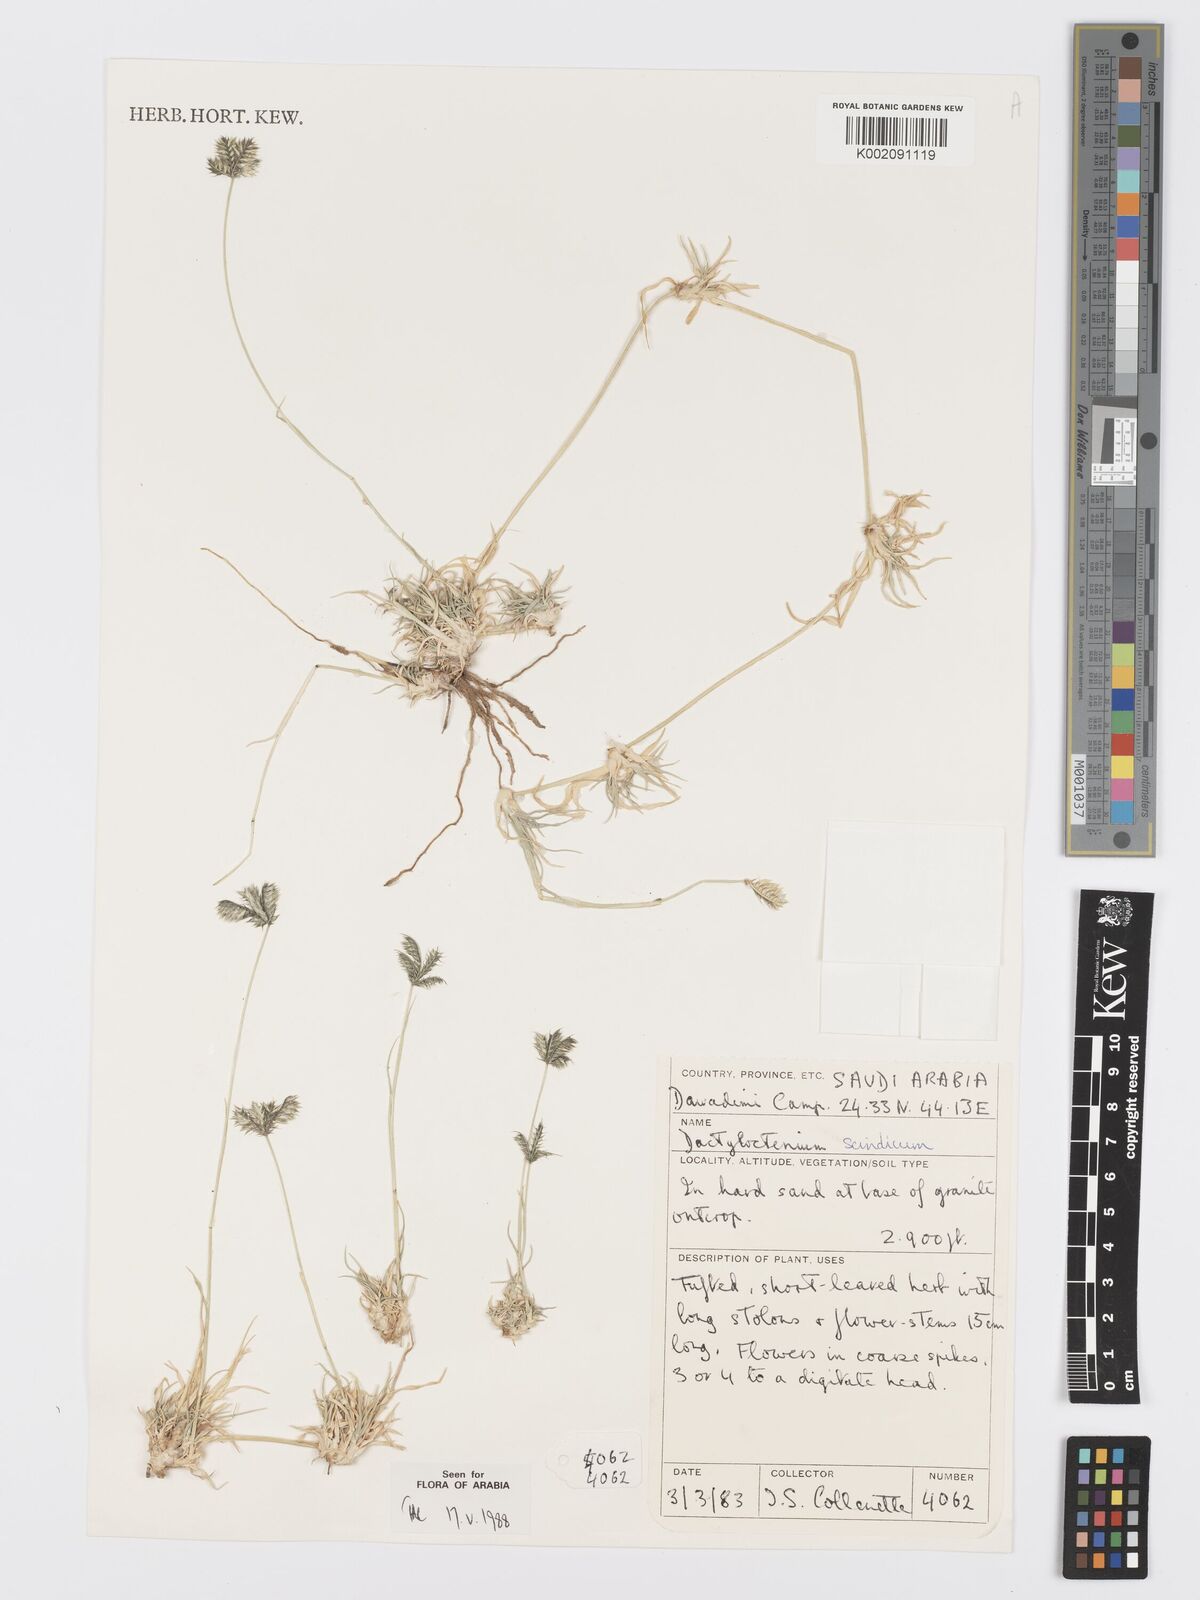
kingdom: Plantae
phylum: Tracheophyta
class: Liliopsida
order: Poales
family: Poaceae
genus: Dactyloctenium
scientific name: Dactyloctenium scindicum
